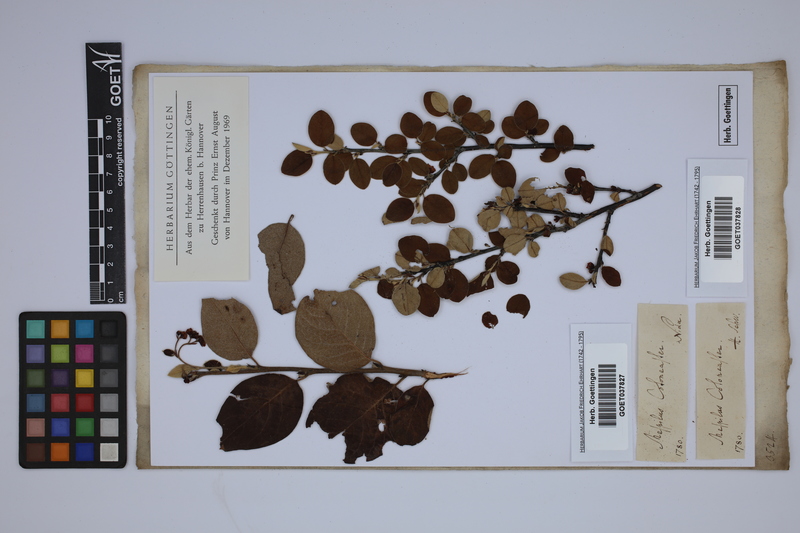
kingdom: Plantae
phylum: Tracheophyta
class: Magnoliopsida
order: Rosales
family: Rosaceae
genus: Cotoneaster
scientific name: Cotoneaster integerrimus
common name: Wild cotoneaster
